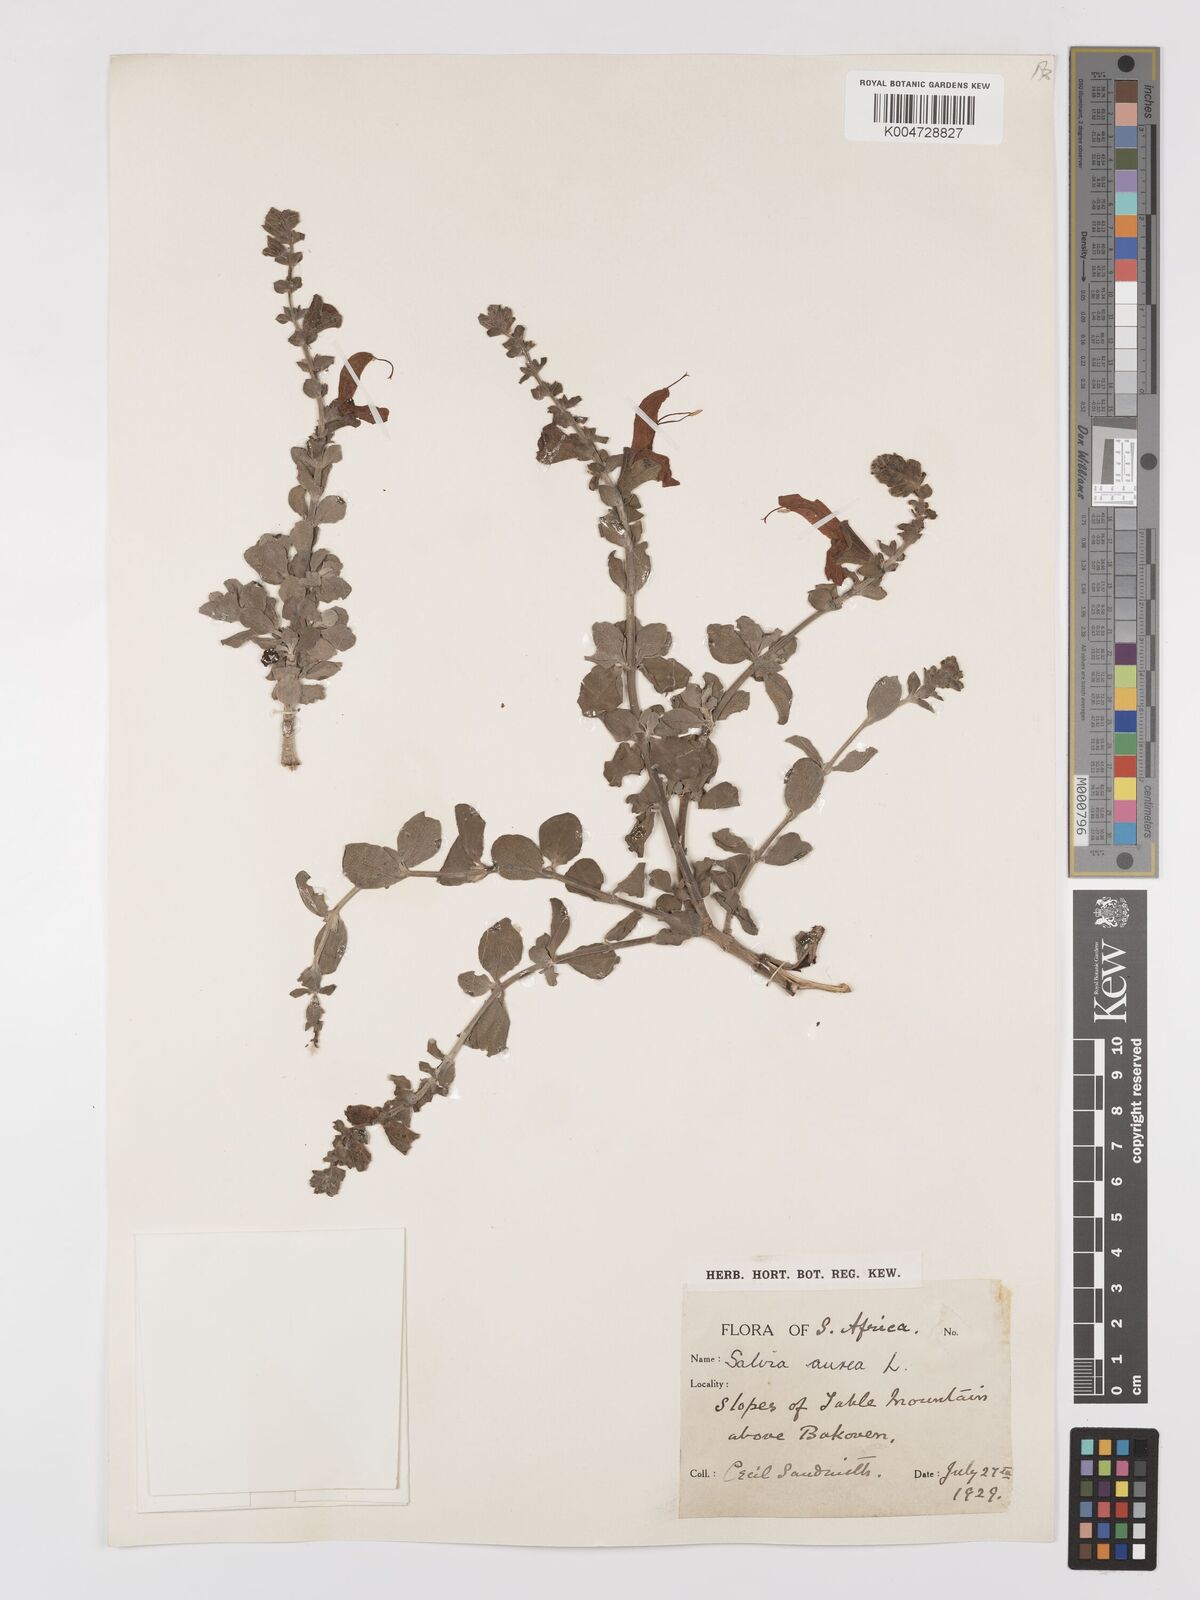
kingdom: Plantae
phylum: Tracheophyta
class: Magnoliopsida
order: Lamiales
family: Lamiaceae
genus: Salvia
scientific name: Salvia aurea
